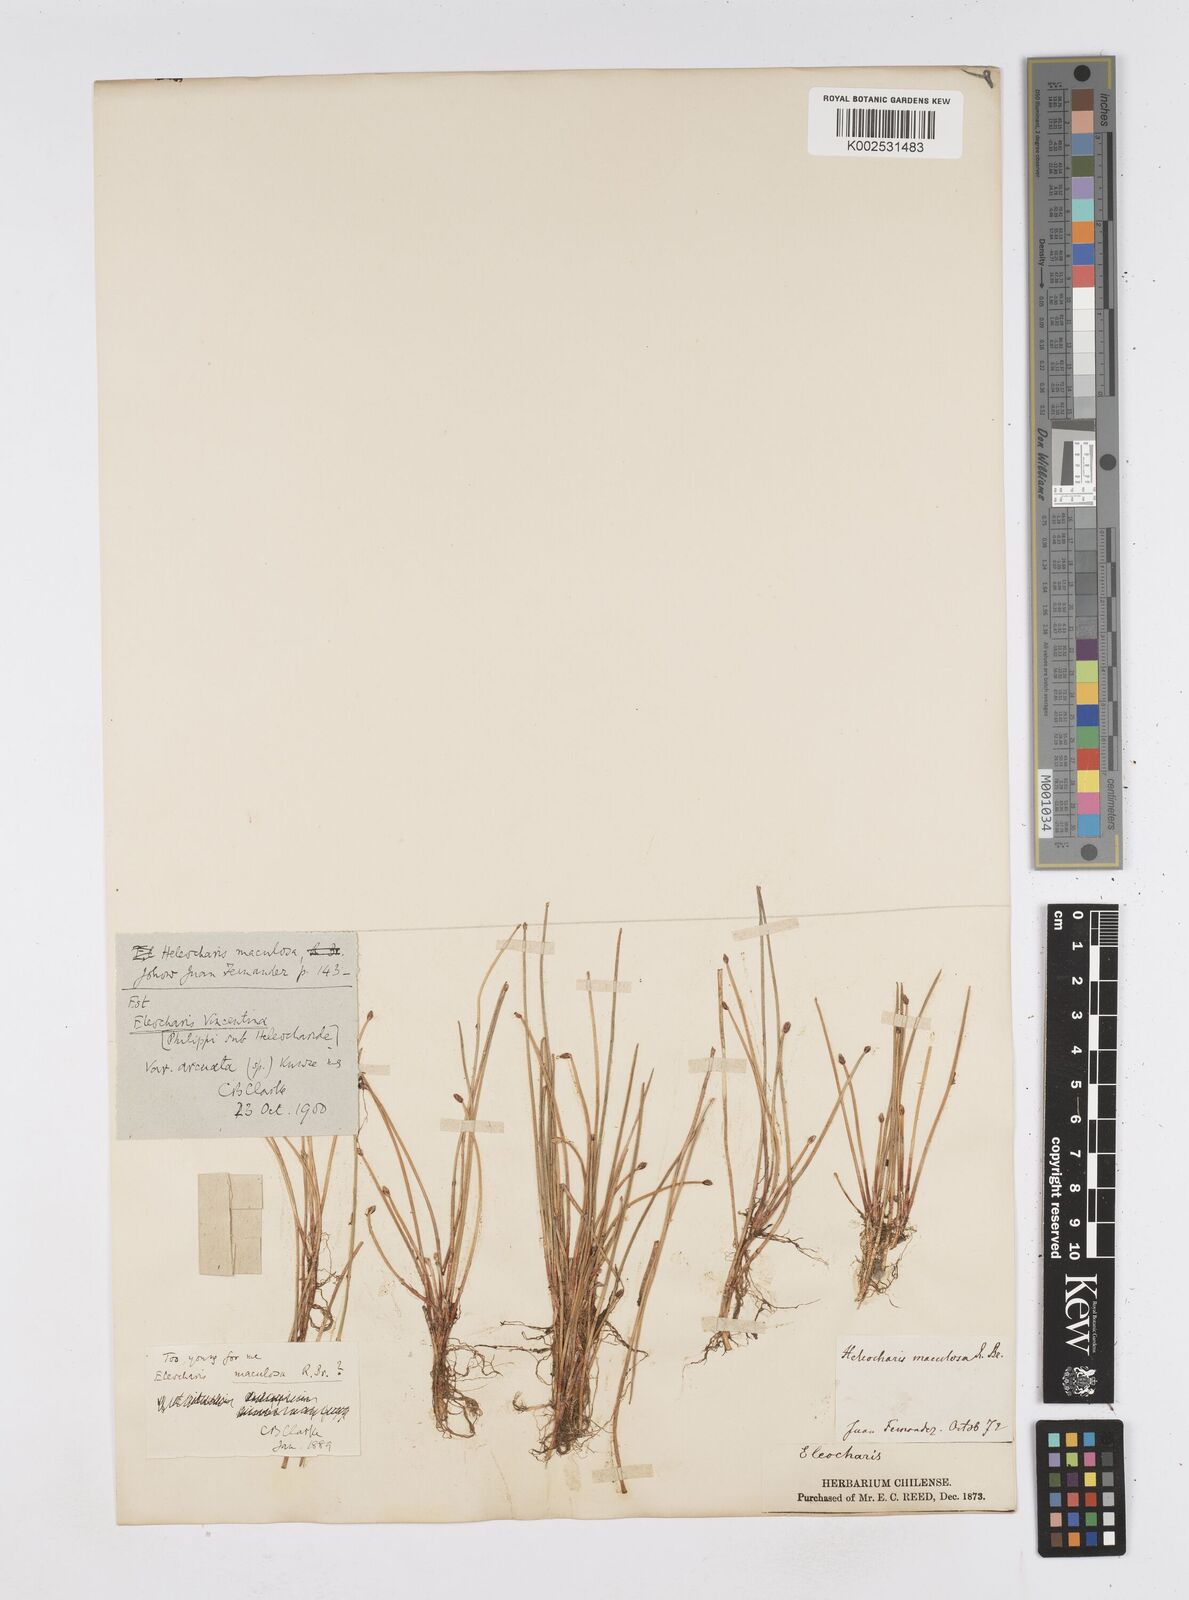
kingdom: Plantae
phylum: Tracheophyta
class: Liliopsida
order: Poales
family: Cyperaceae
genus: Eleocharis
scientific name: Eleocharis maculosa
